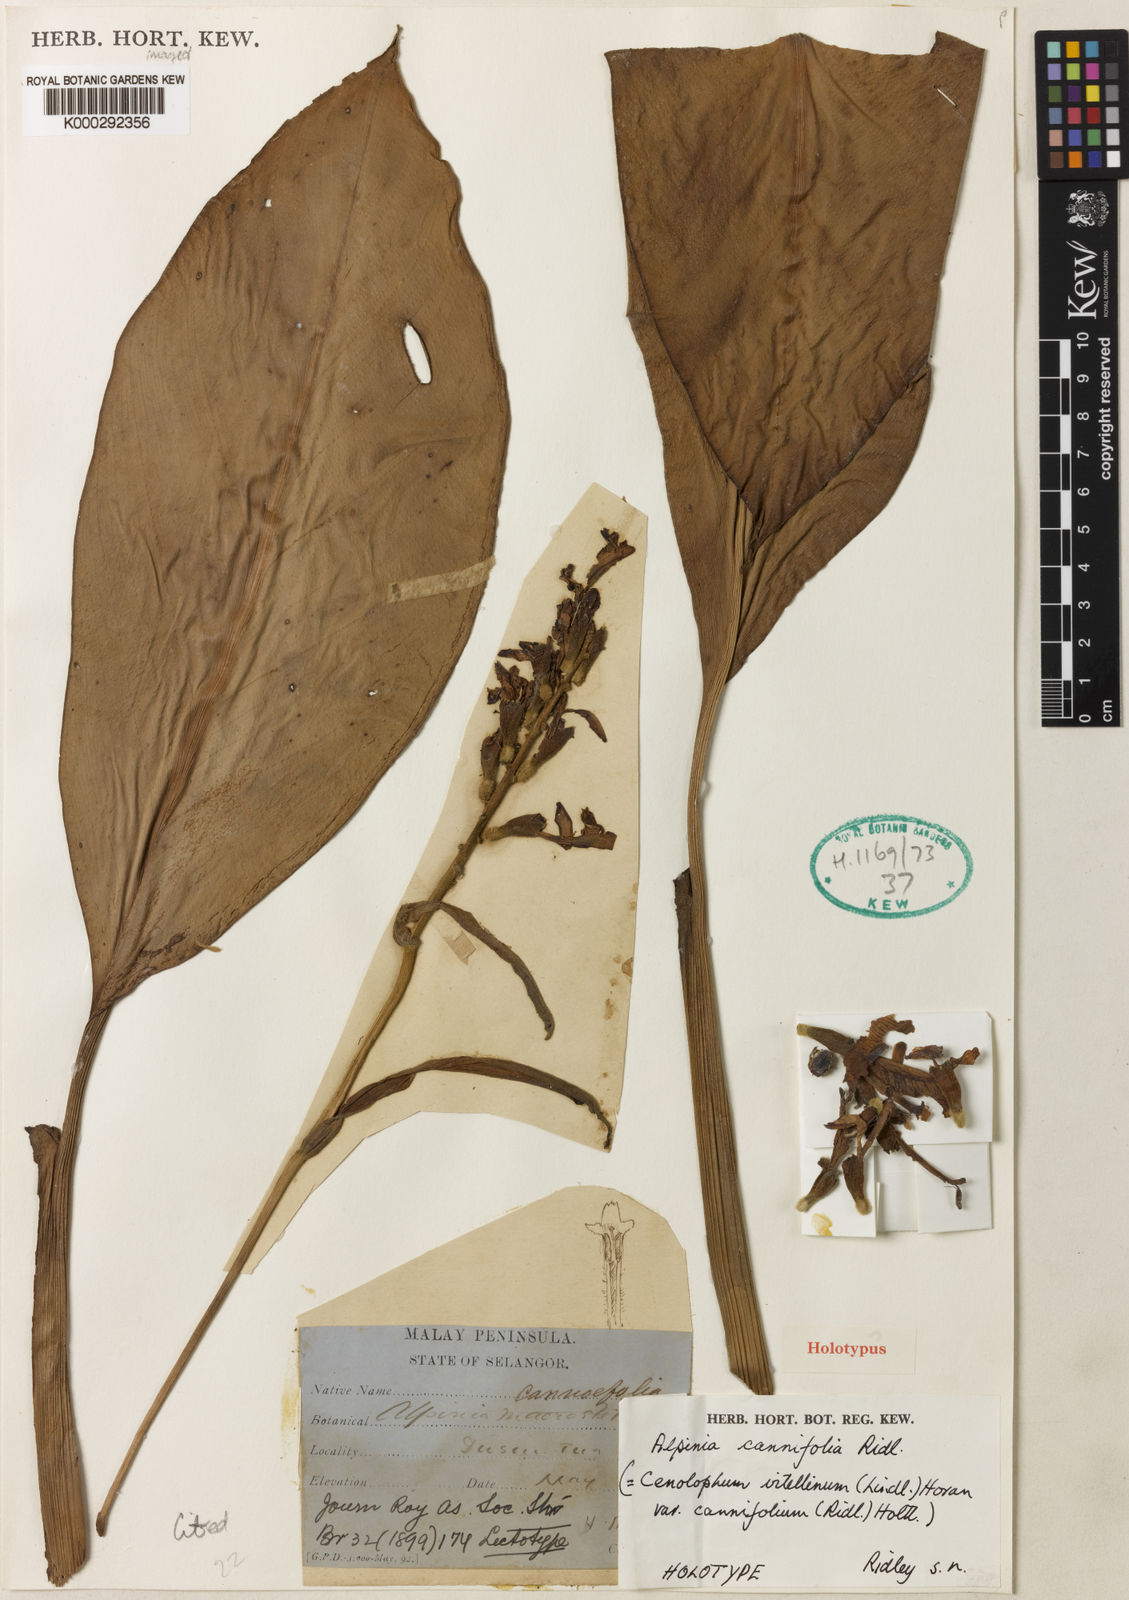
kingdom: Plantae
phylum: Tracheophyta
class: Liliopsida
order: Zingiberales
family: Zingiberaceae
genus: Alpinia
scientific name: Alpinia vitellina
